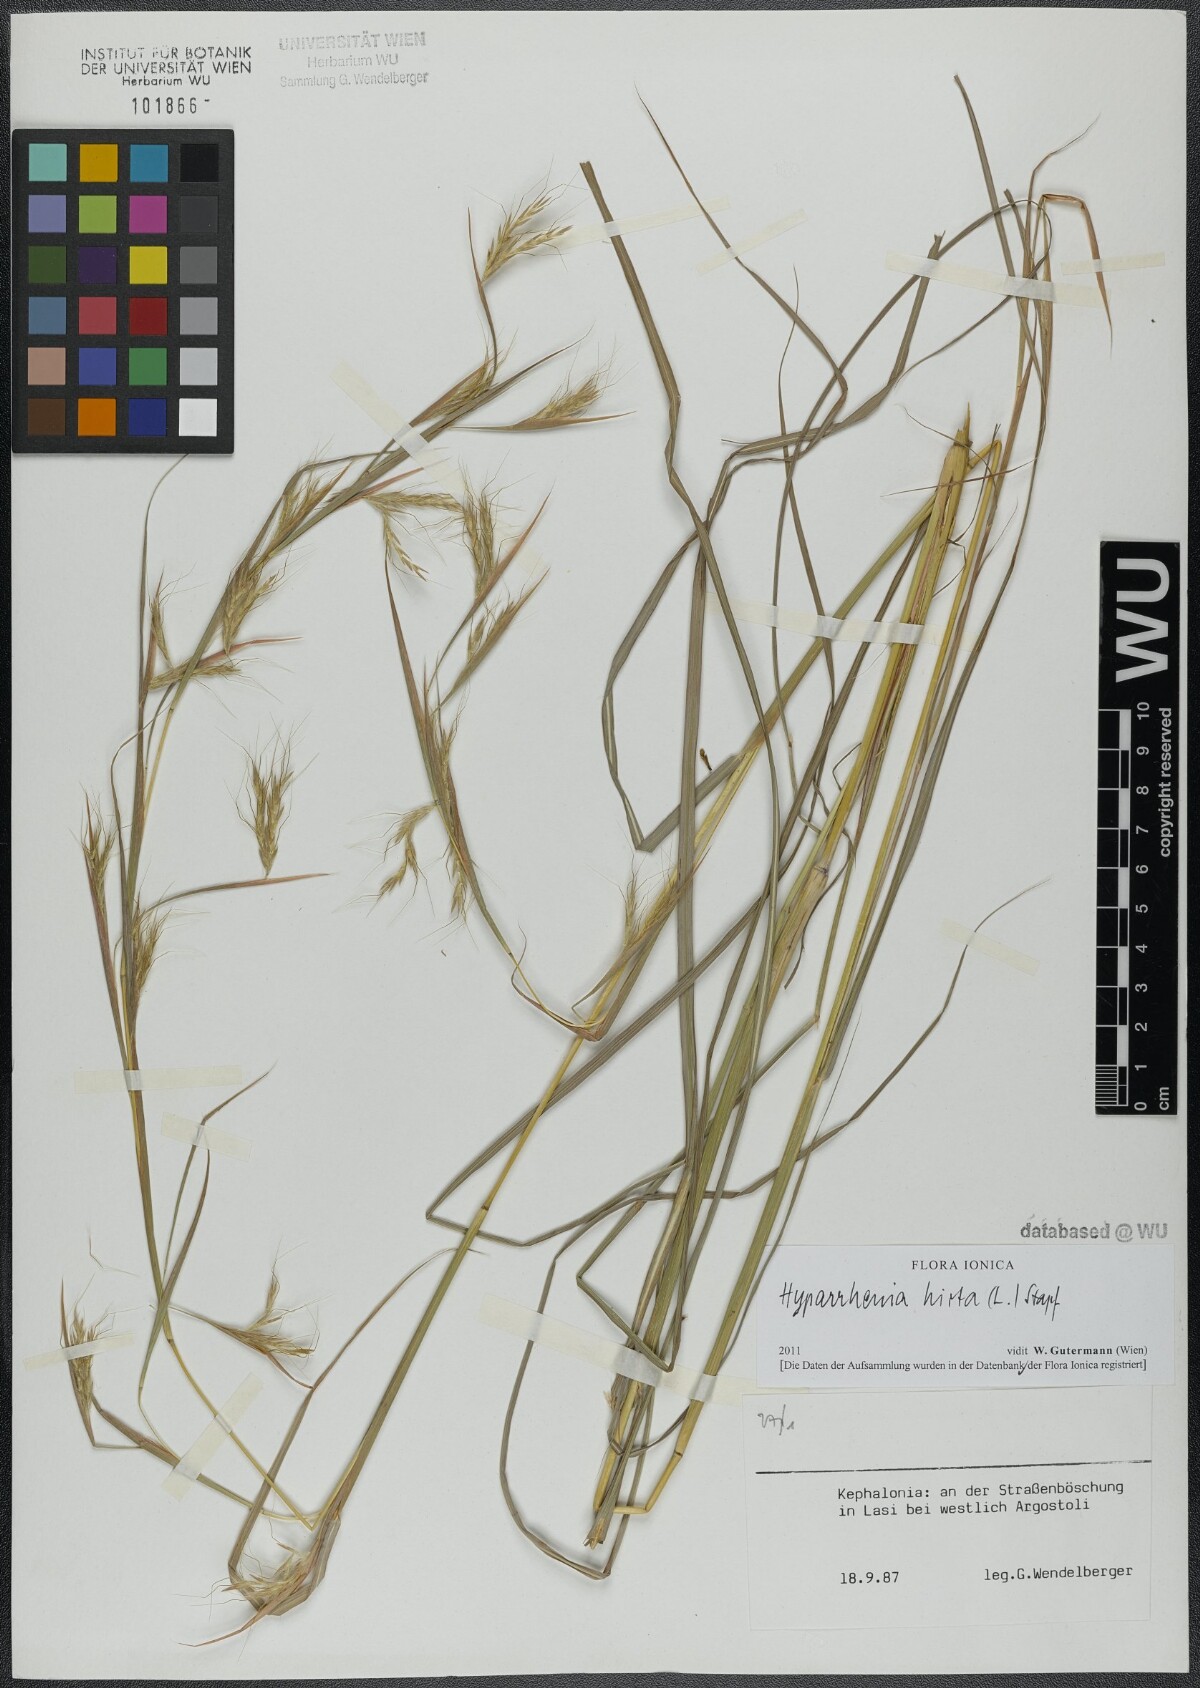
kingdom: Plantae
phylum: Tracheophyta
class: Liliopsida
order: Poales
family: Poaceae
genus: Hyparrhenia
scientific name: Hyparrhenia hirta
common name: Thatching grass
